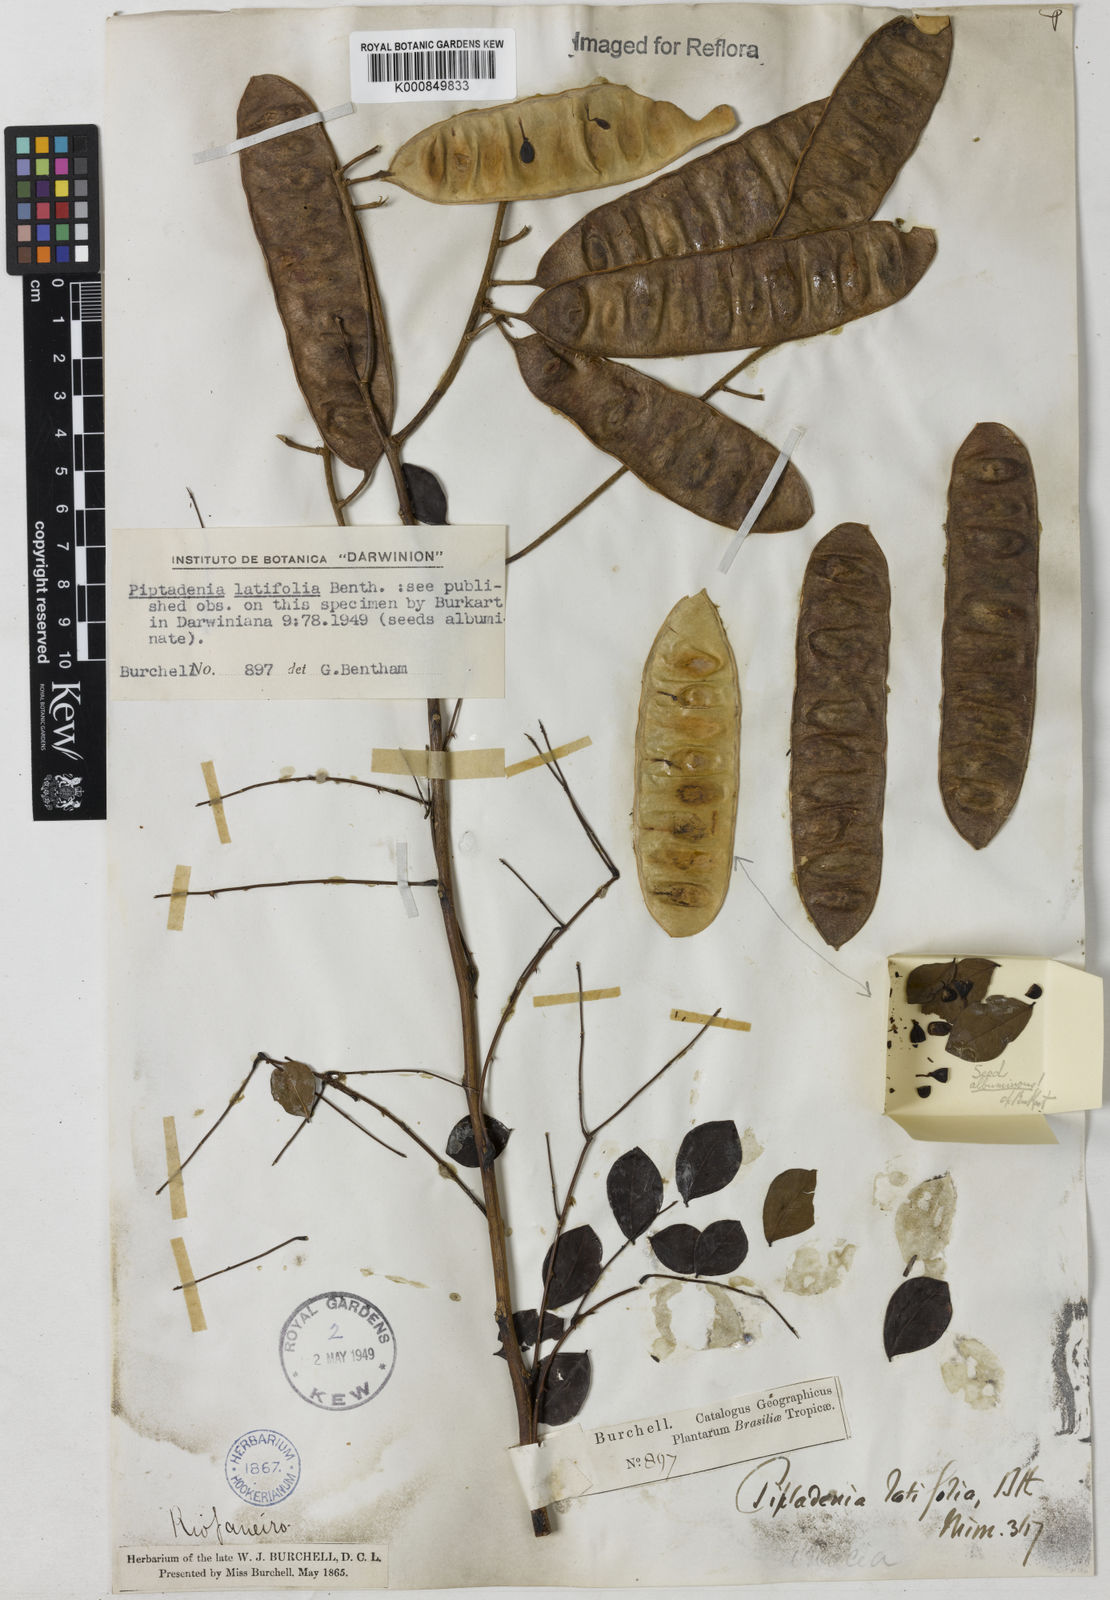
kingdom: Plantae
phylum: Tracheophyta
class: Magnoliopsida
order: Fabales
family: Fabaceae
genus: Piptadenia
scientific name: Piptadenia adiantoides
